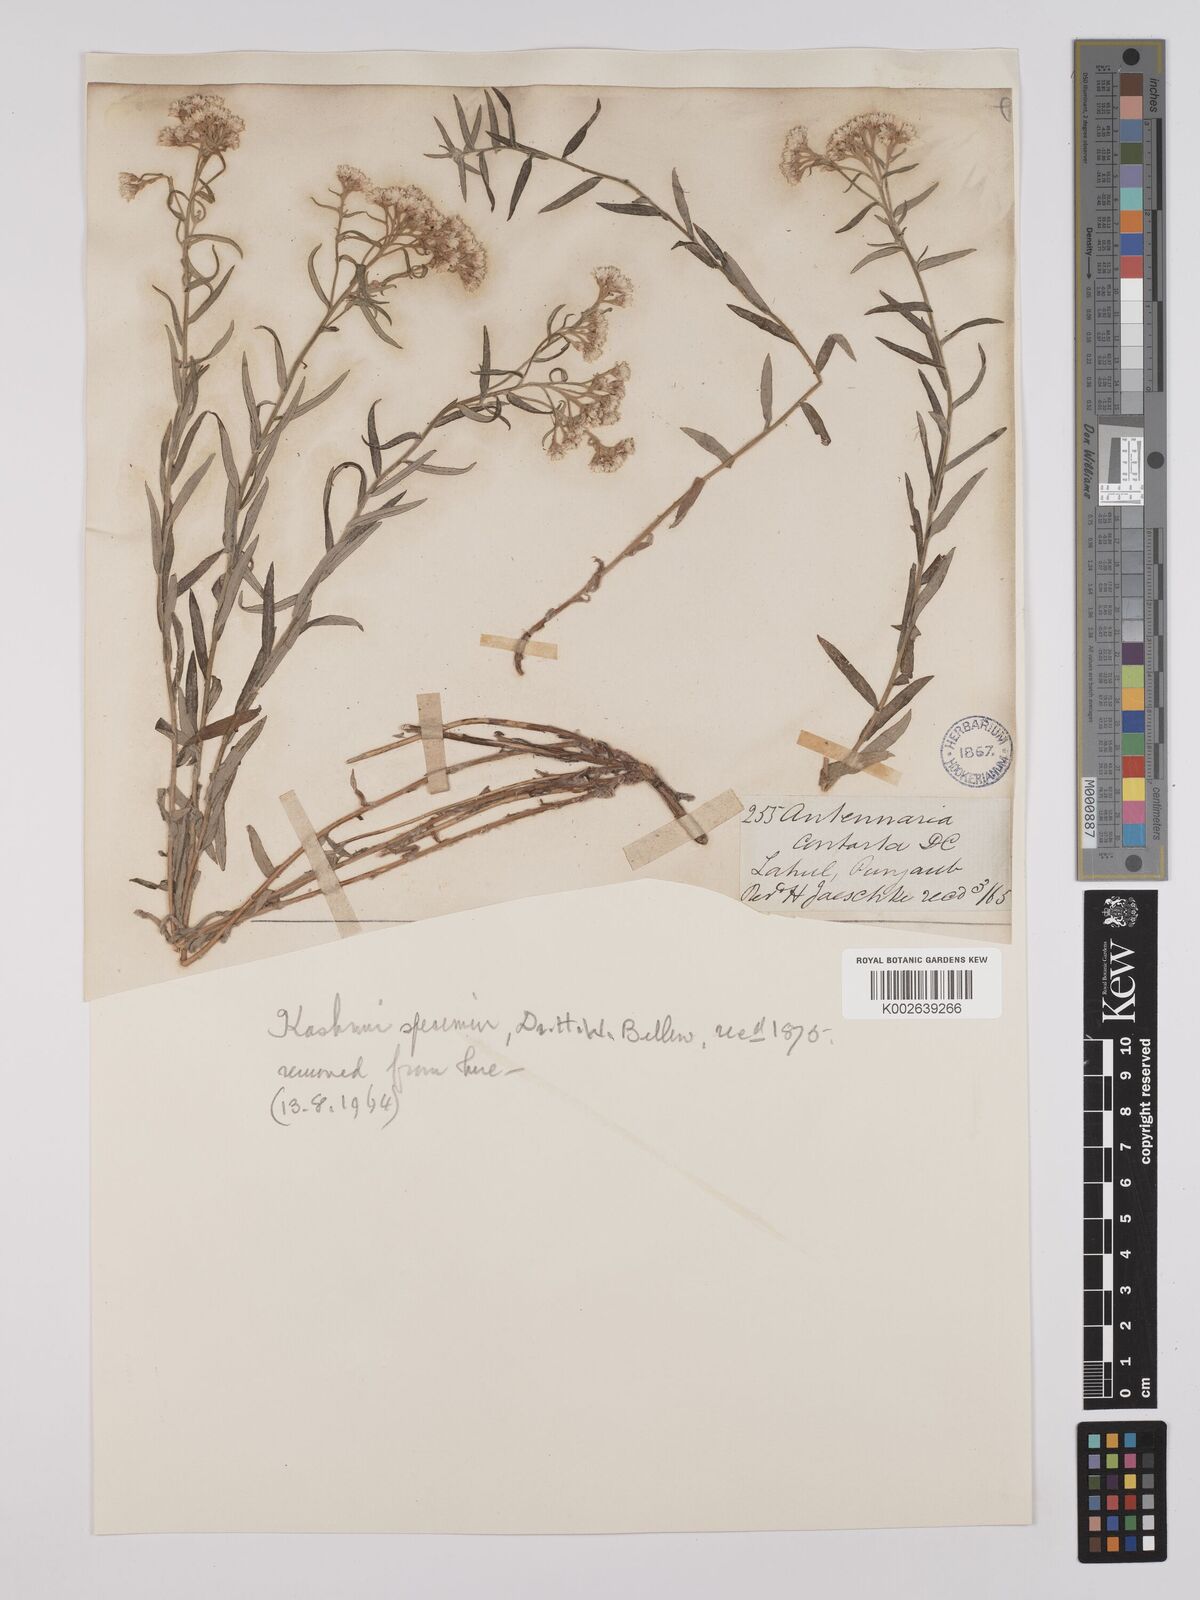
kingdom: Plantae
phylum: Tracheophyta
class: Magnoliopsida
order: Asterales
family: Asteraceae
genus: Anaphalis
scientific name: Anaphalis virgata
